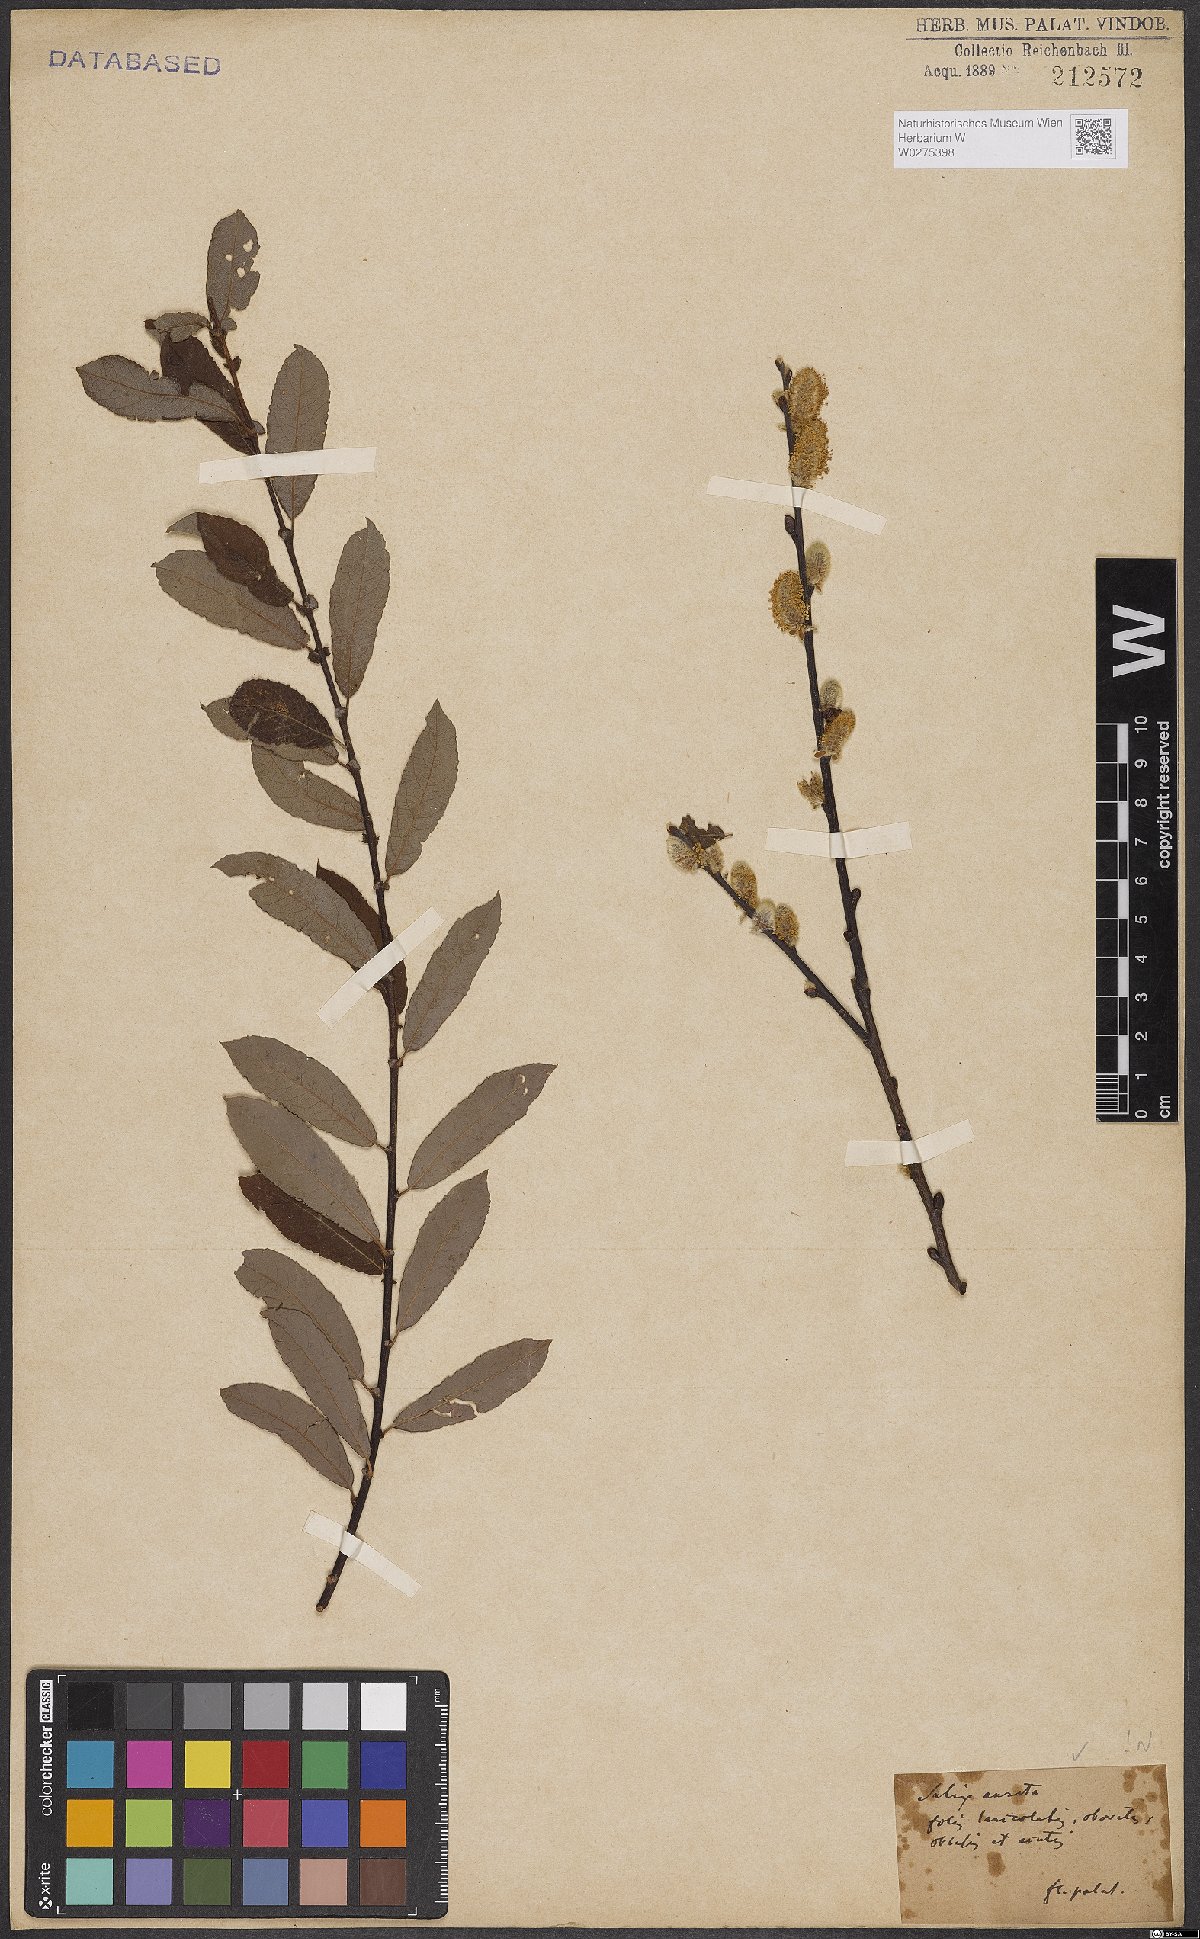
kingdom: Plantae
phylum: Tracheophyta
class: Magnoliopsida
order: Malpighiales
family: Salicaceae
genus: Salix
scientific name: Salix aurita
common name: Eared willow
